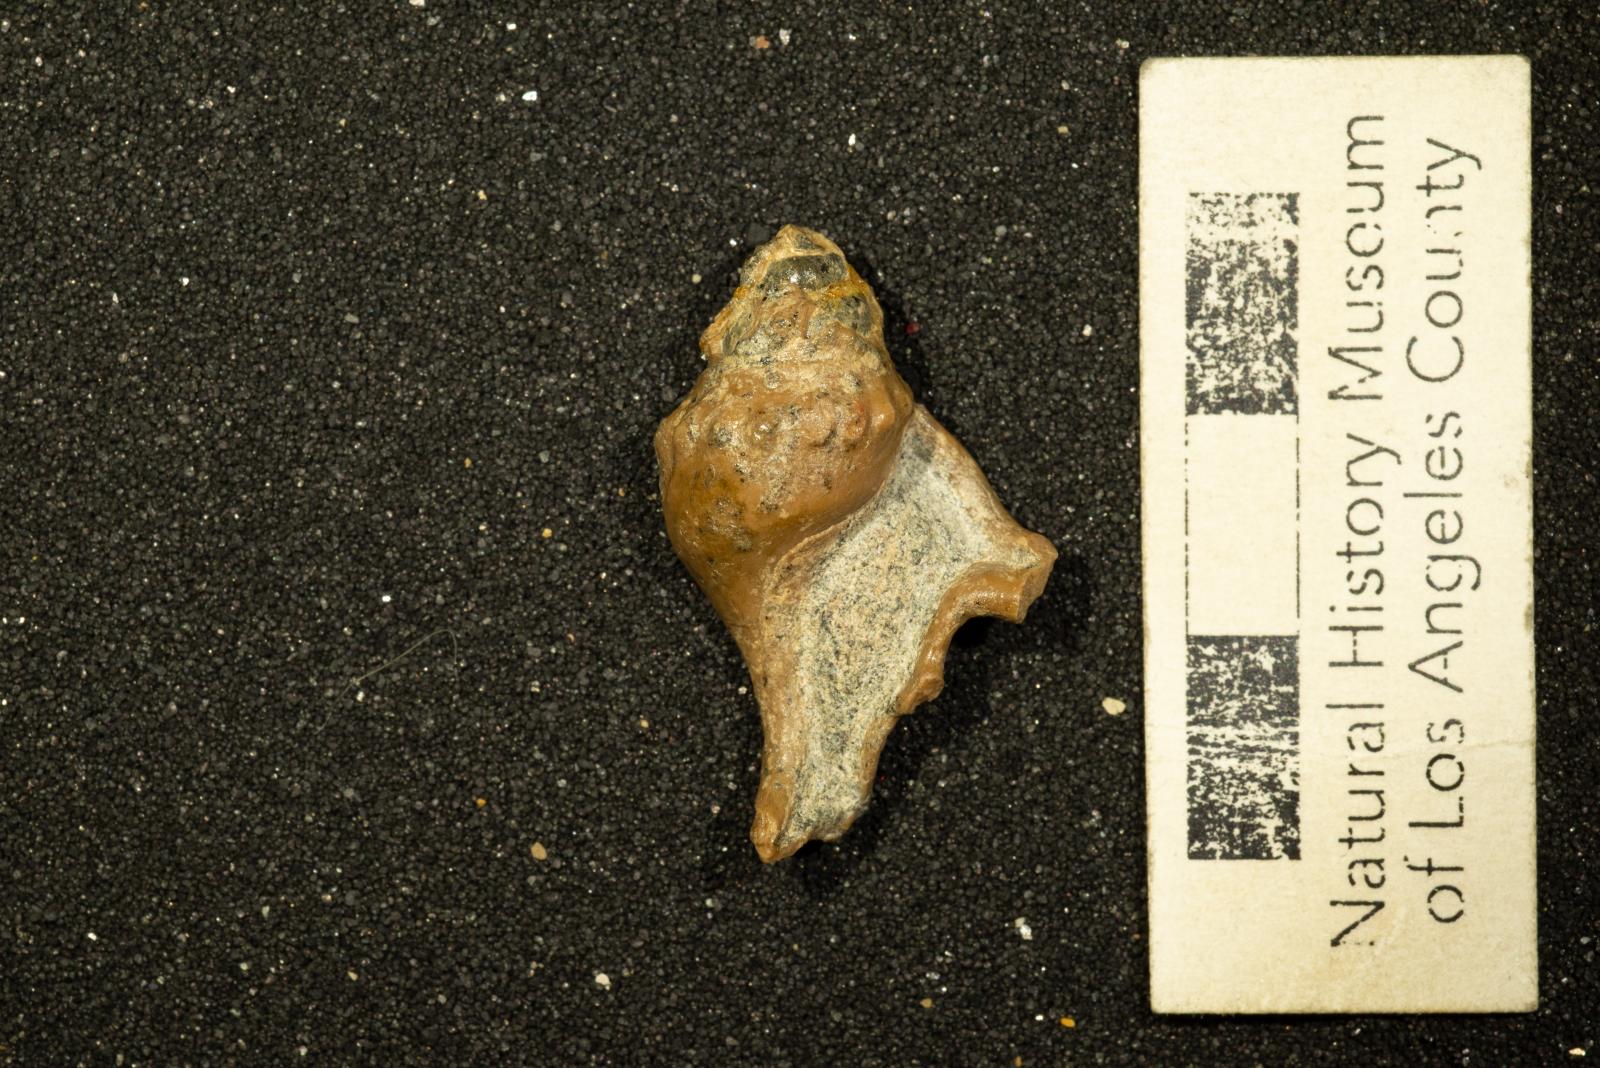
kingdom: Animalia
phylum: Mollusca
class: Cephalopoda
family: Baculitidae
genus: Baculites
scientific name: Baculites schencki
